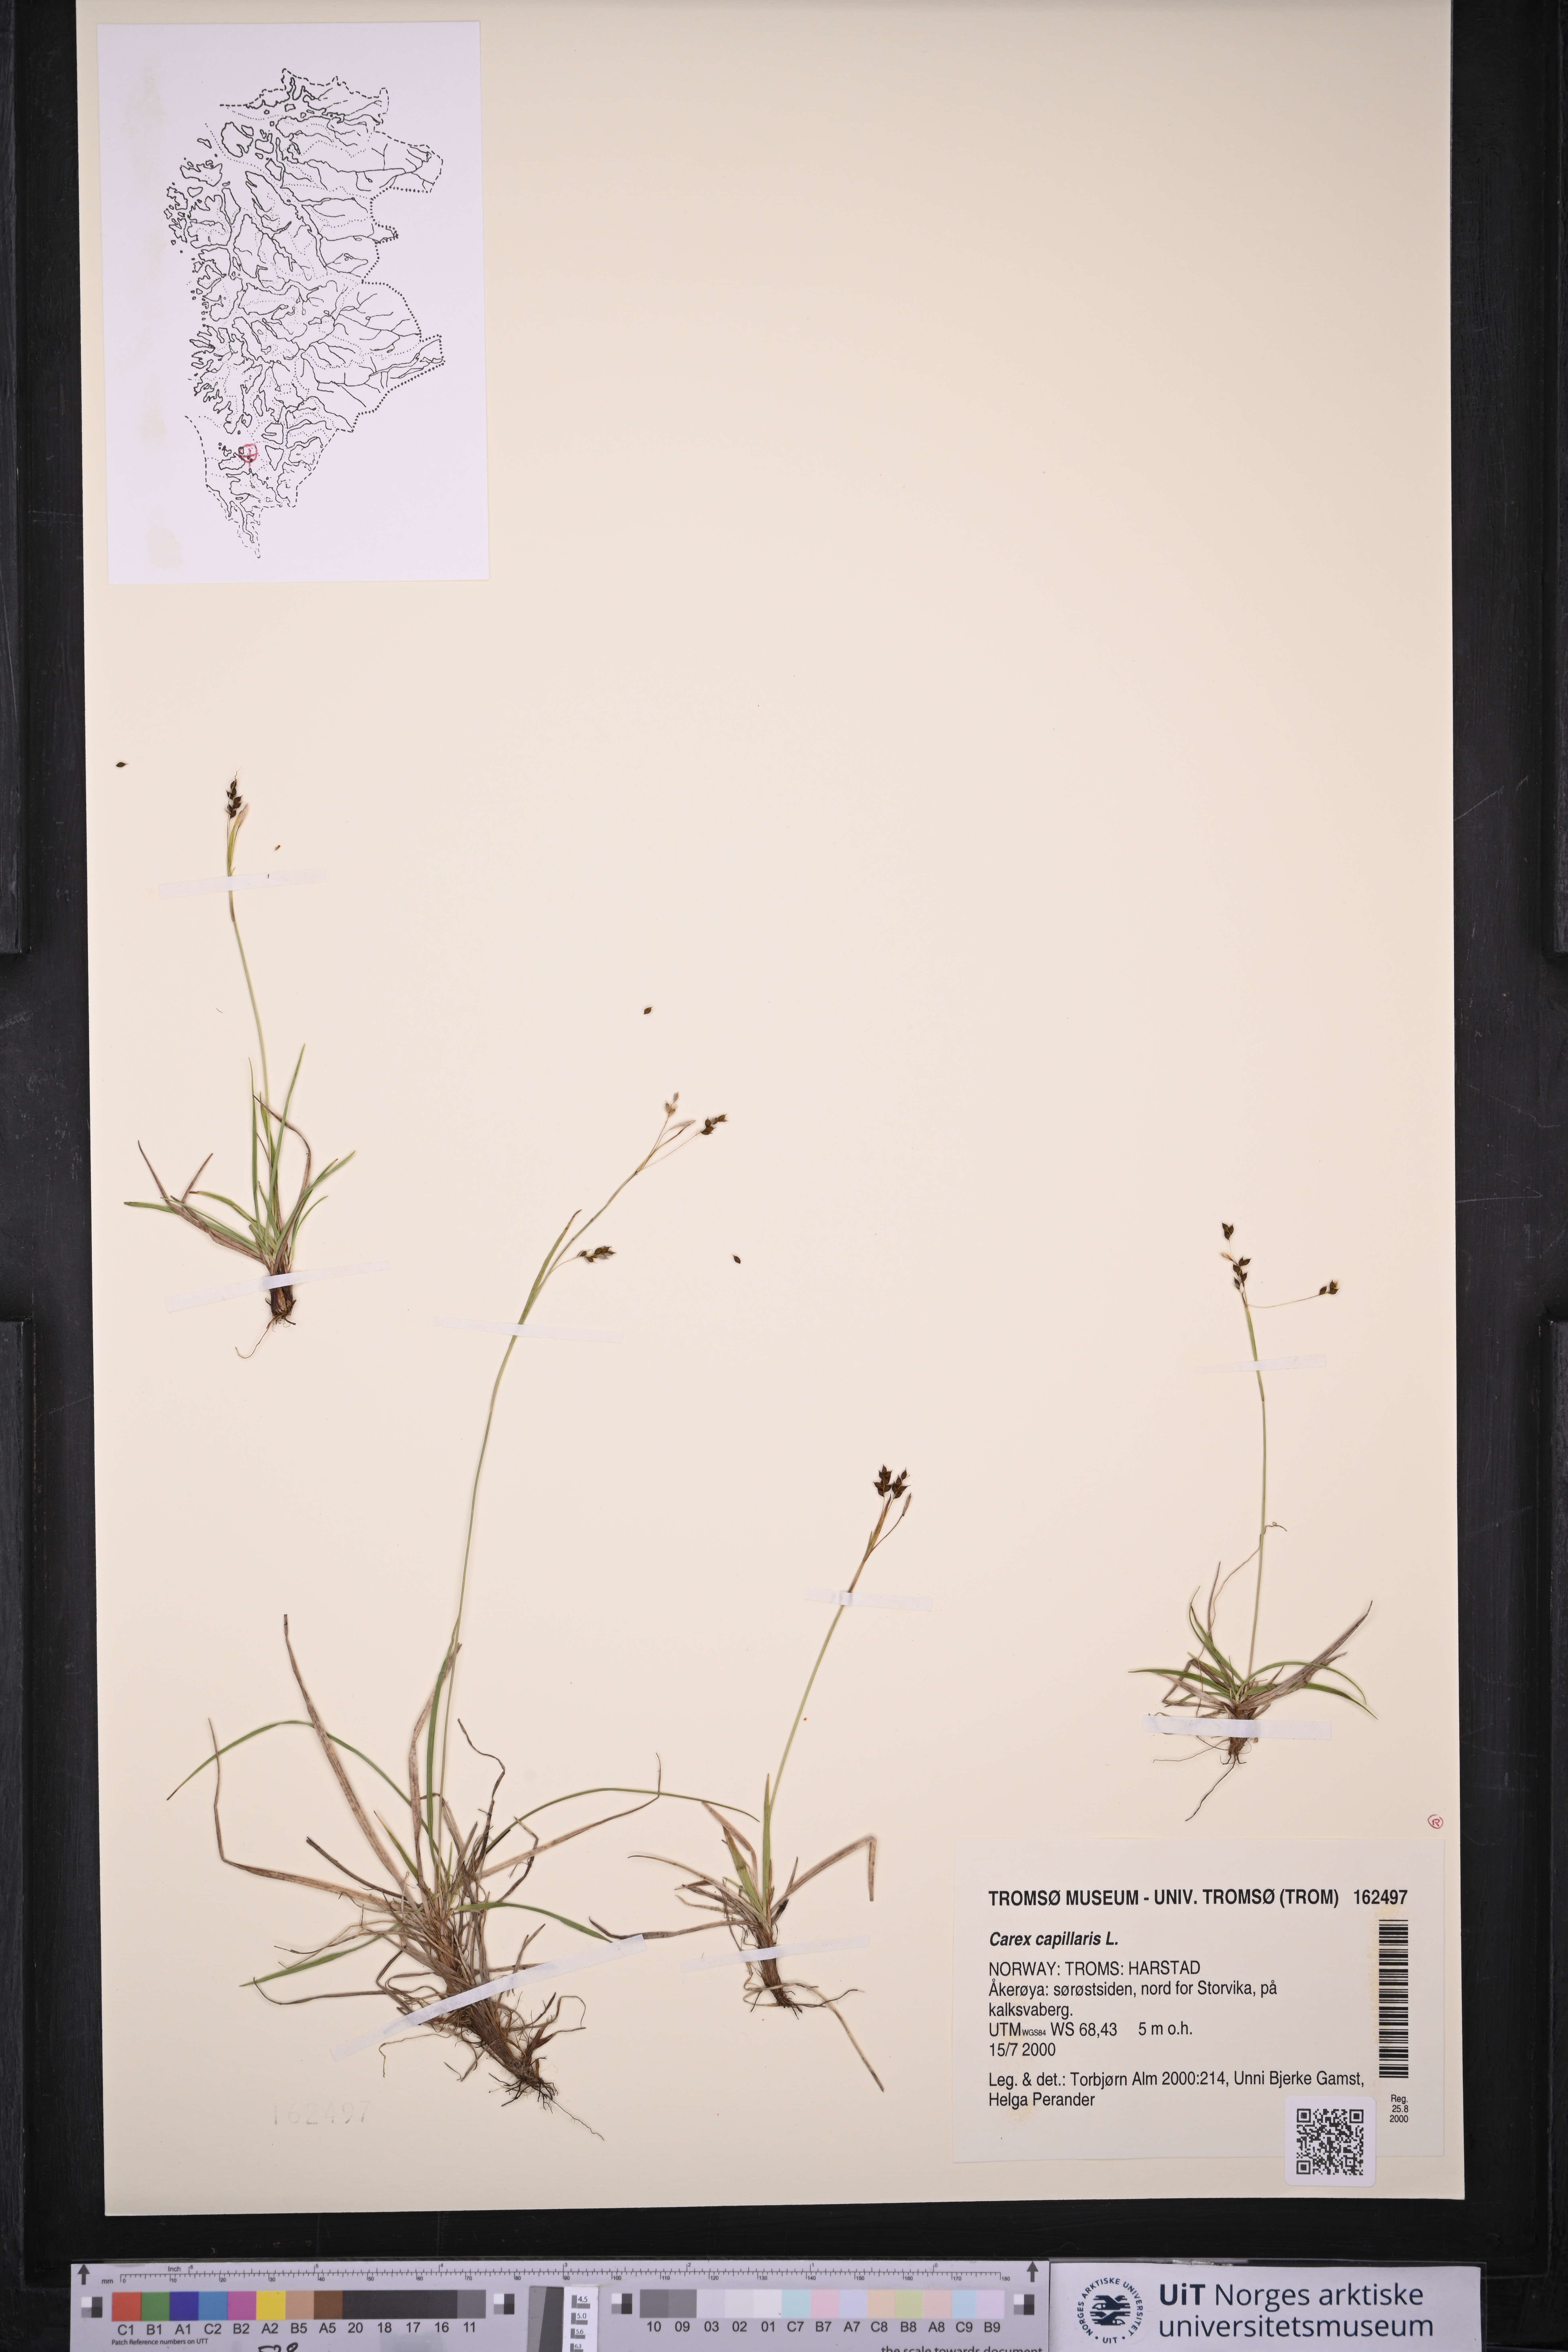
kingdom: Plantae
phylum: Tracheophyta
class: Liliopsida
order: Poales
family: Cyperaceae
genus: Carex
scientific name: Carex capillaris
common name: Hair sedge
